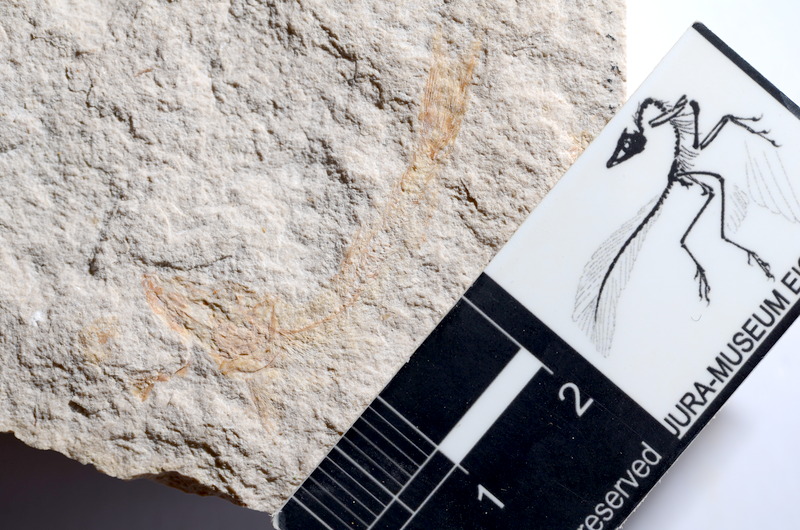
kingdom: Animalia
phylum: Chordata
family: Ascalaboidae
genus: Tharsis
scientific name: Tharsis dubius
